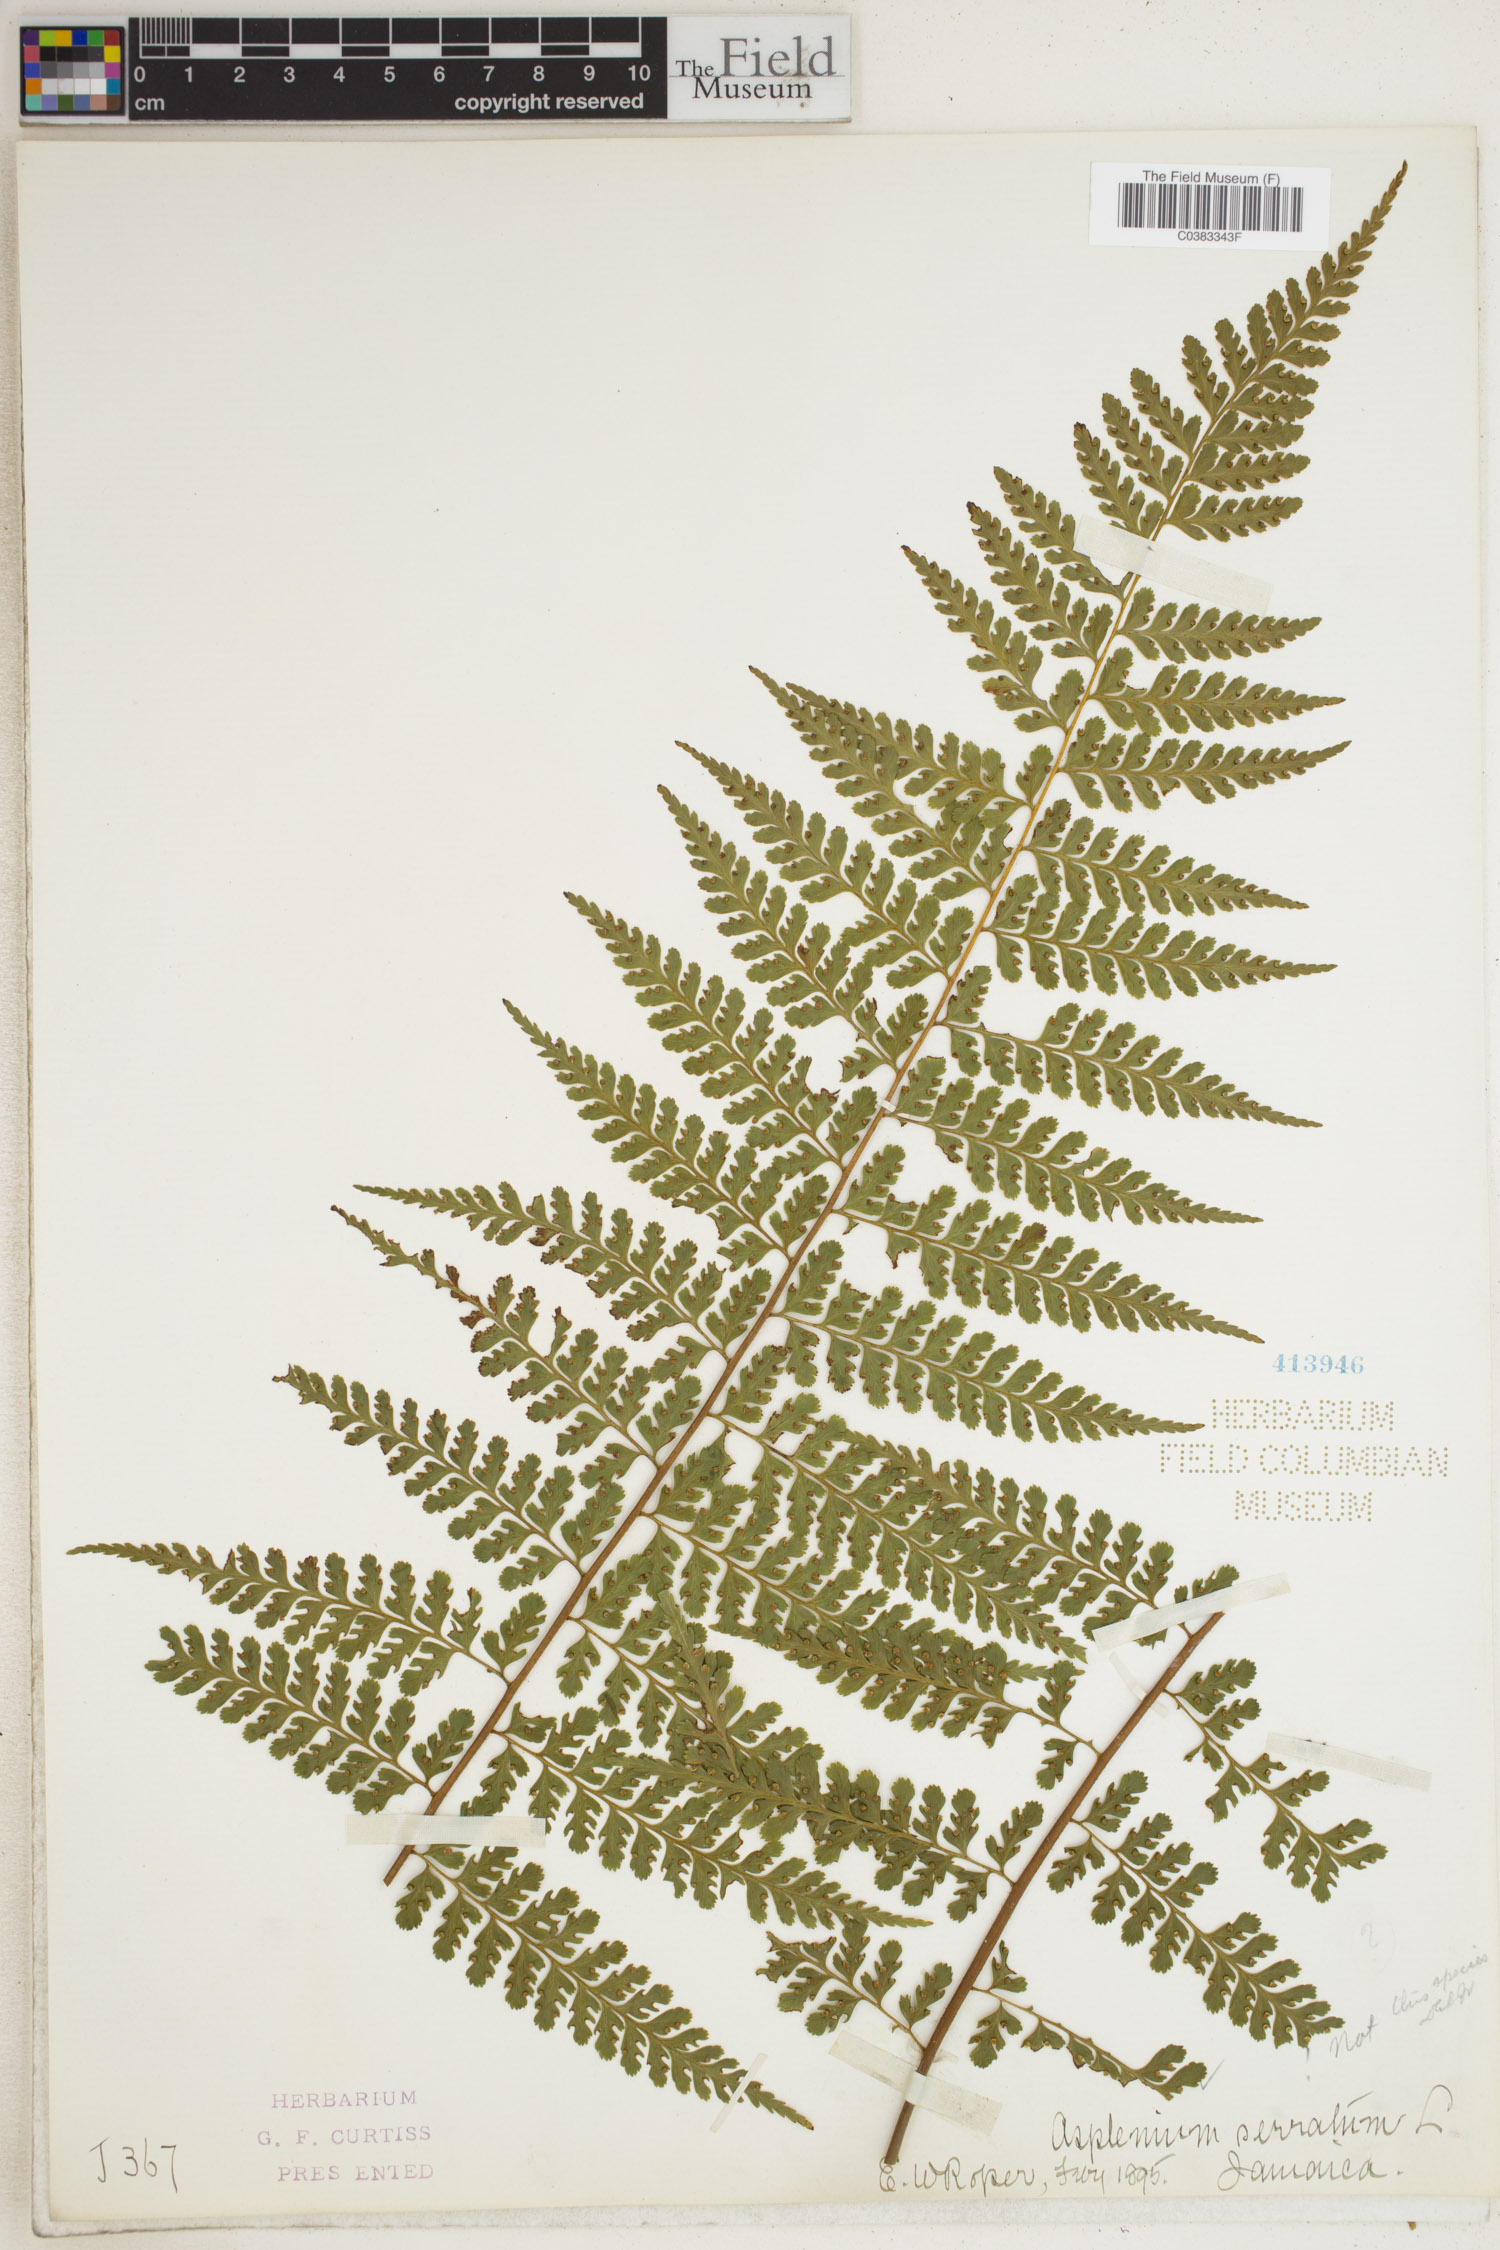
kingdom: Plantae
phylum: Tracheophyta
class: Polypodiopsida
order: Polypodiales
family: Aspleniaceae
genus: Asplenium
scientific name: Asplenium serratum
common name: Wild birdnest fern
